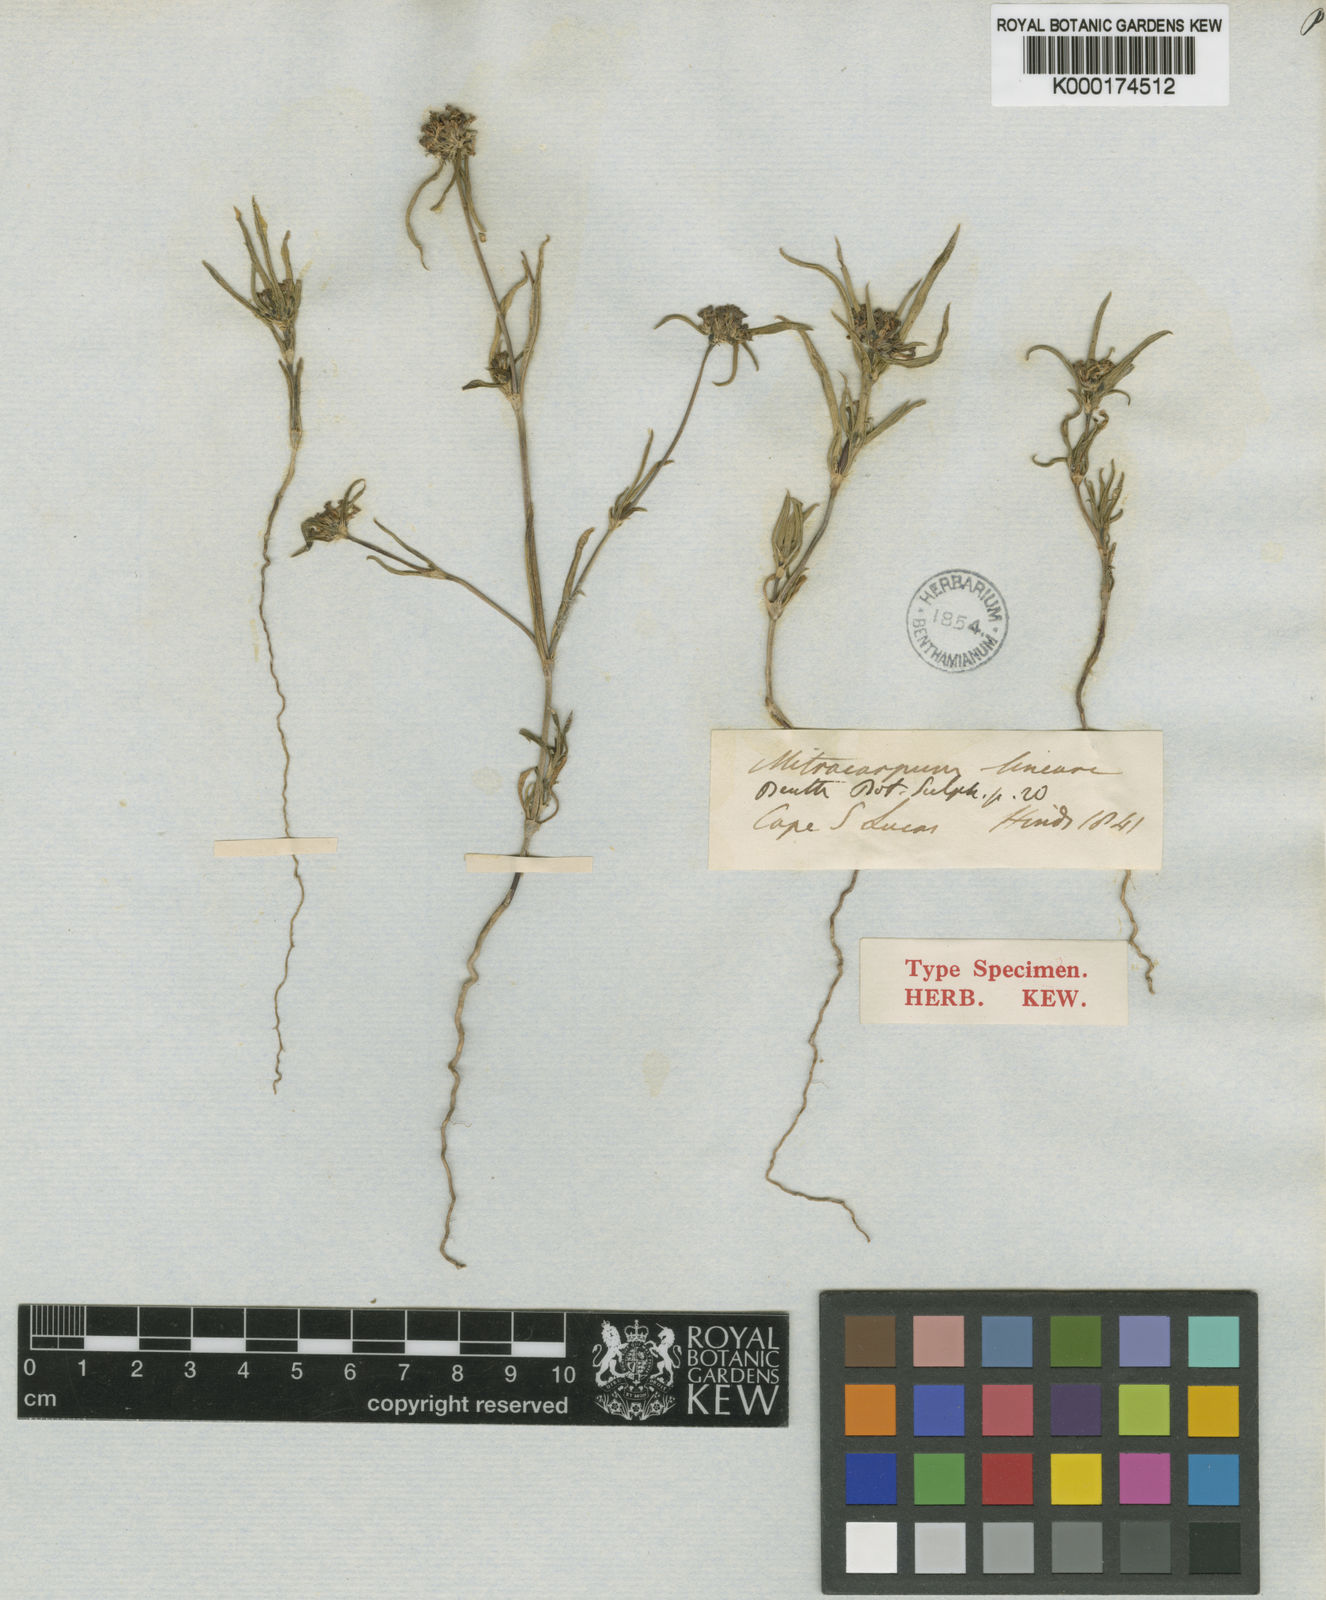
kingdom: Plantae
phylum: Tracheophyta
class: Magnoliopsida
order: Gentianales
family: Rubiaceae
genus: Mitracarpus
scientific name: Mitracarpus linearis
